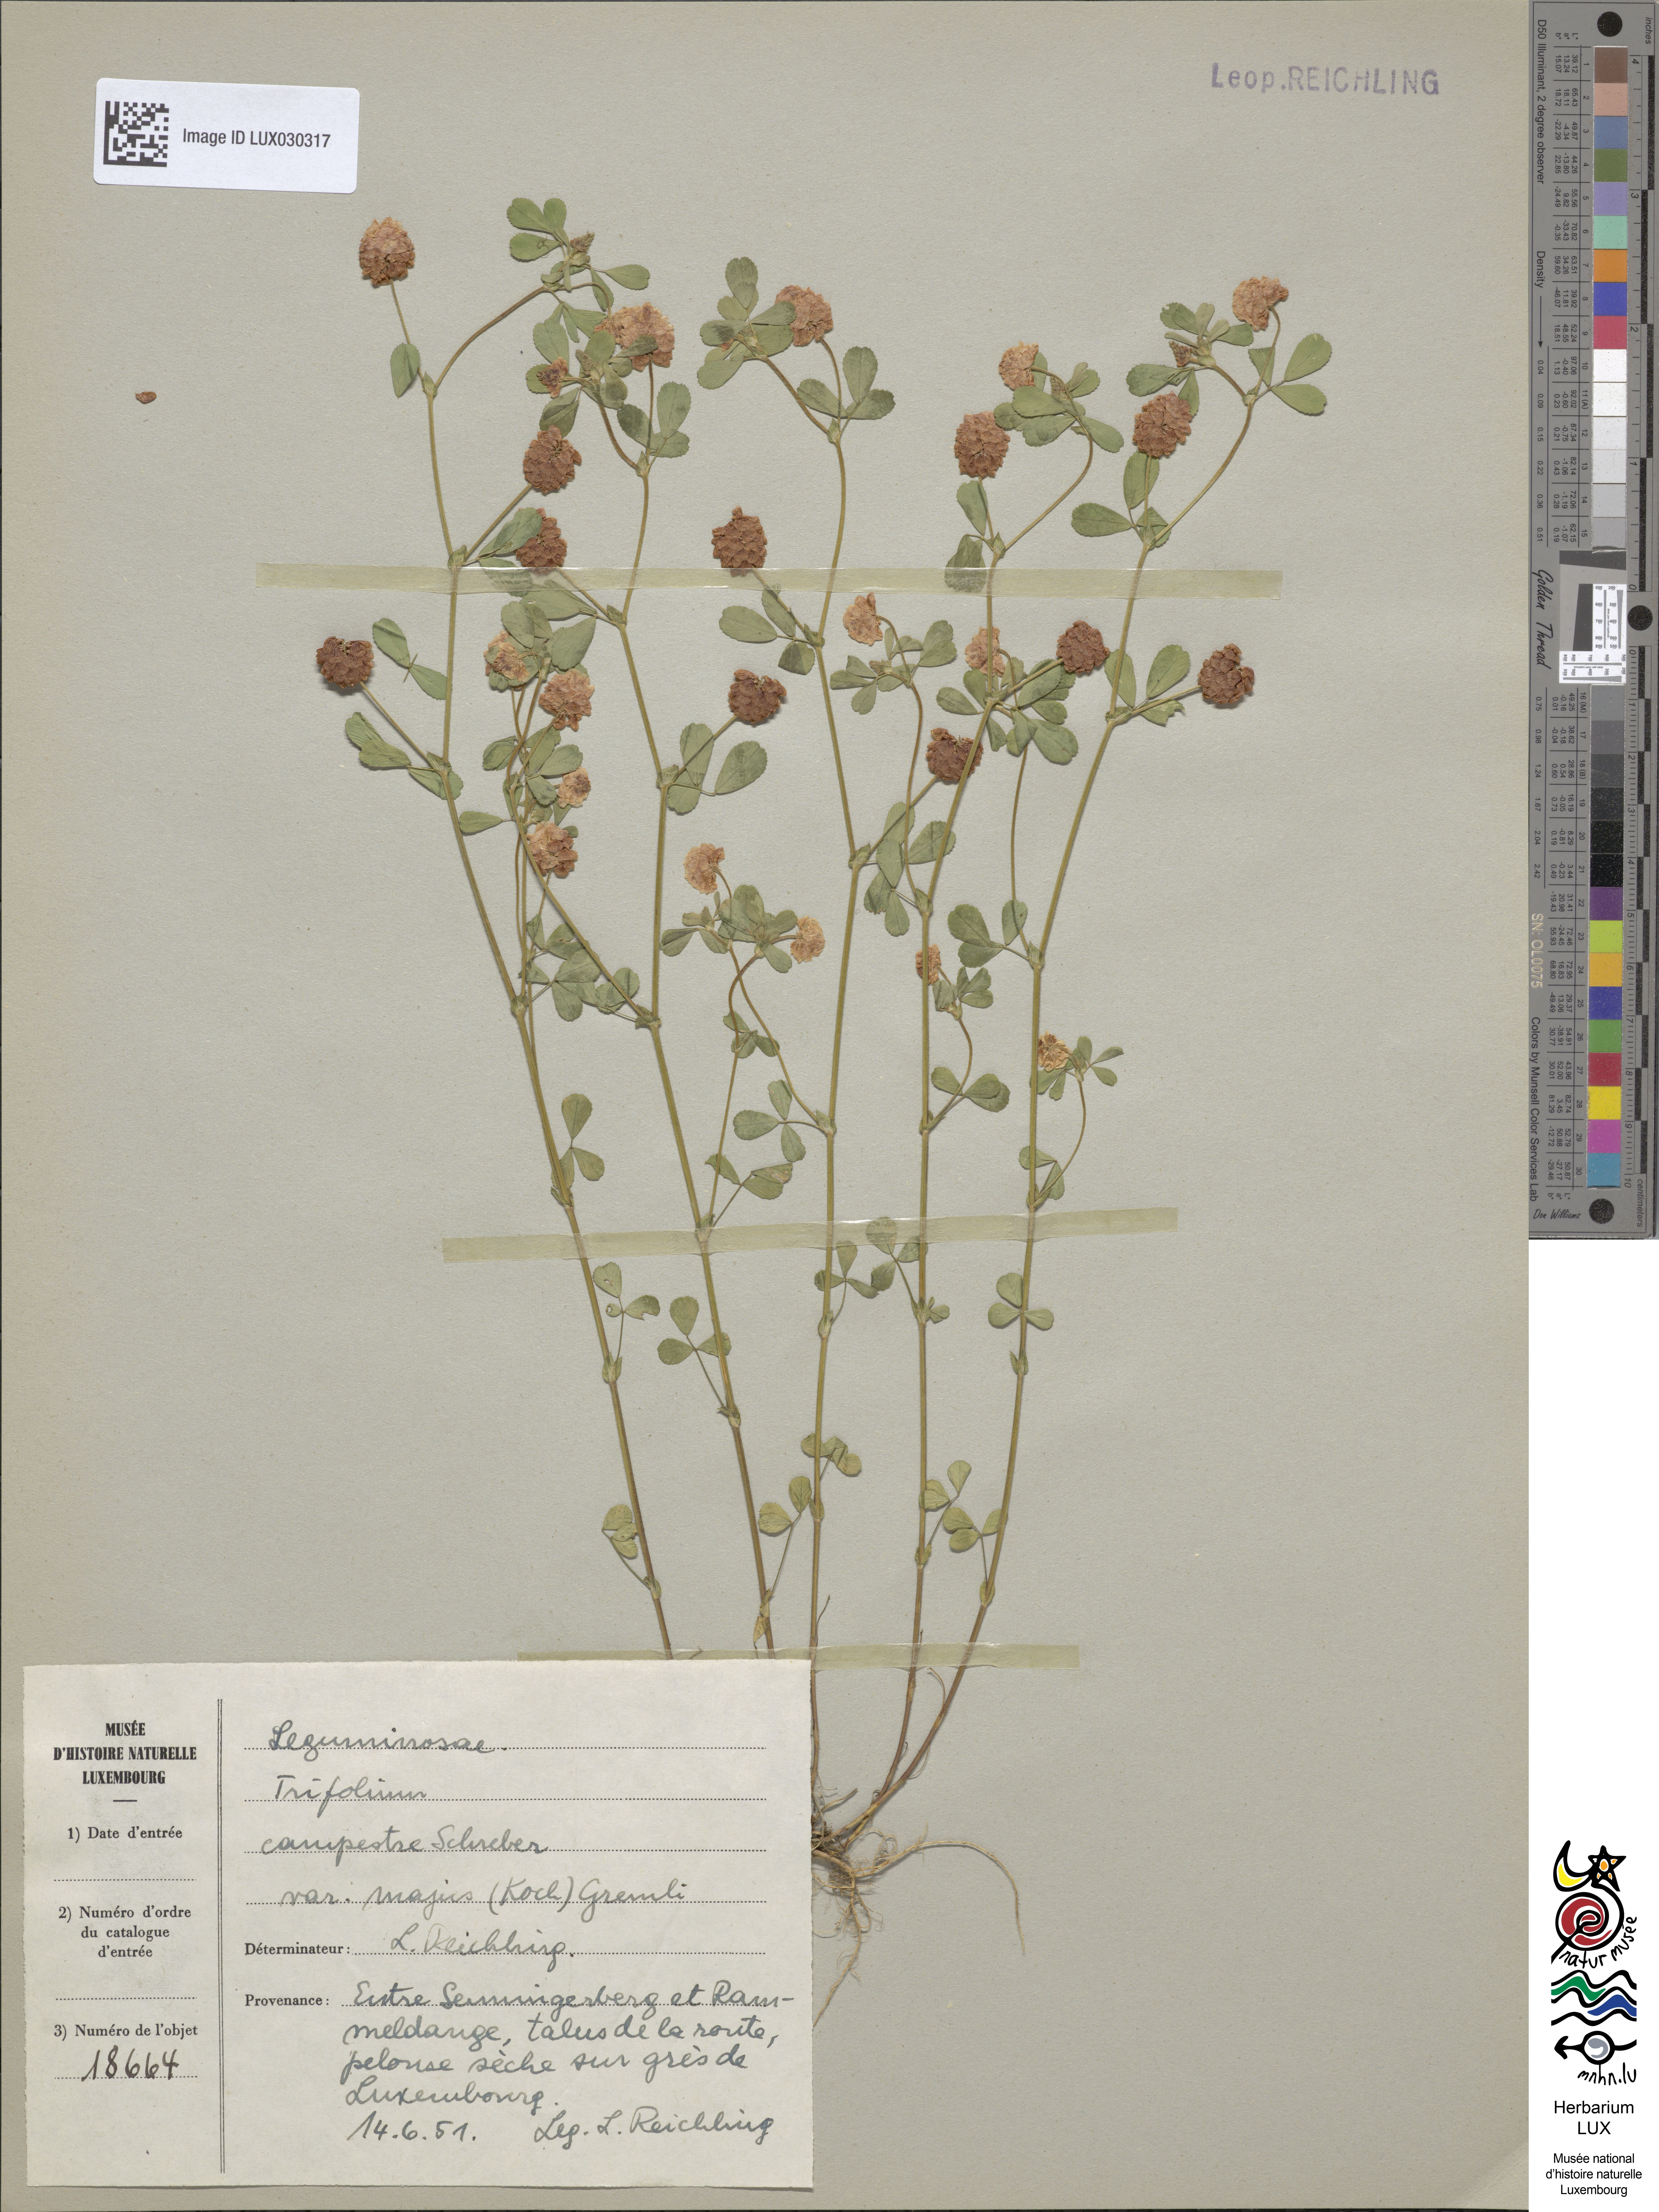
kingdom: Plantae
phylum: Tracheophyta
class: Magnoliopsida
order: Fabales
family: Fabaceae
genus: Trifolium
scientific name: Trifolium campestre
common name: Field clover
